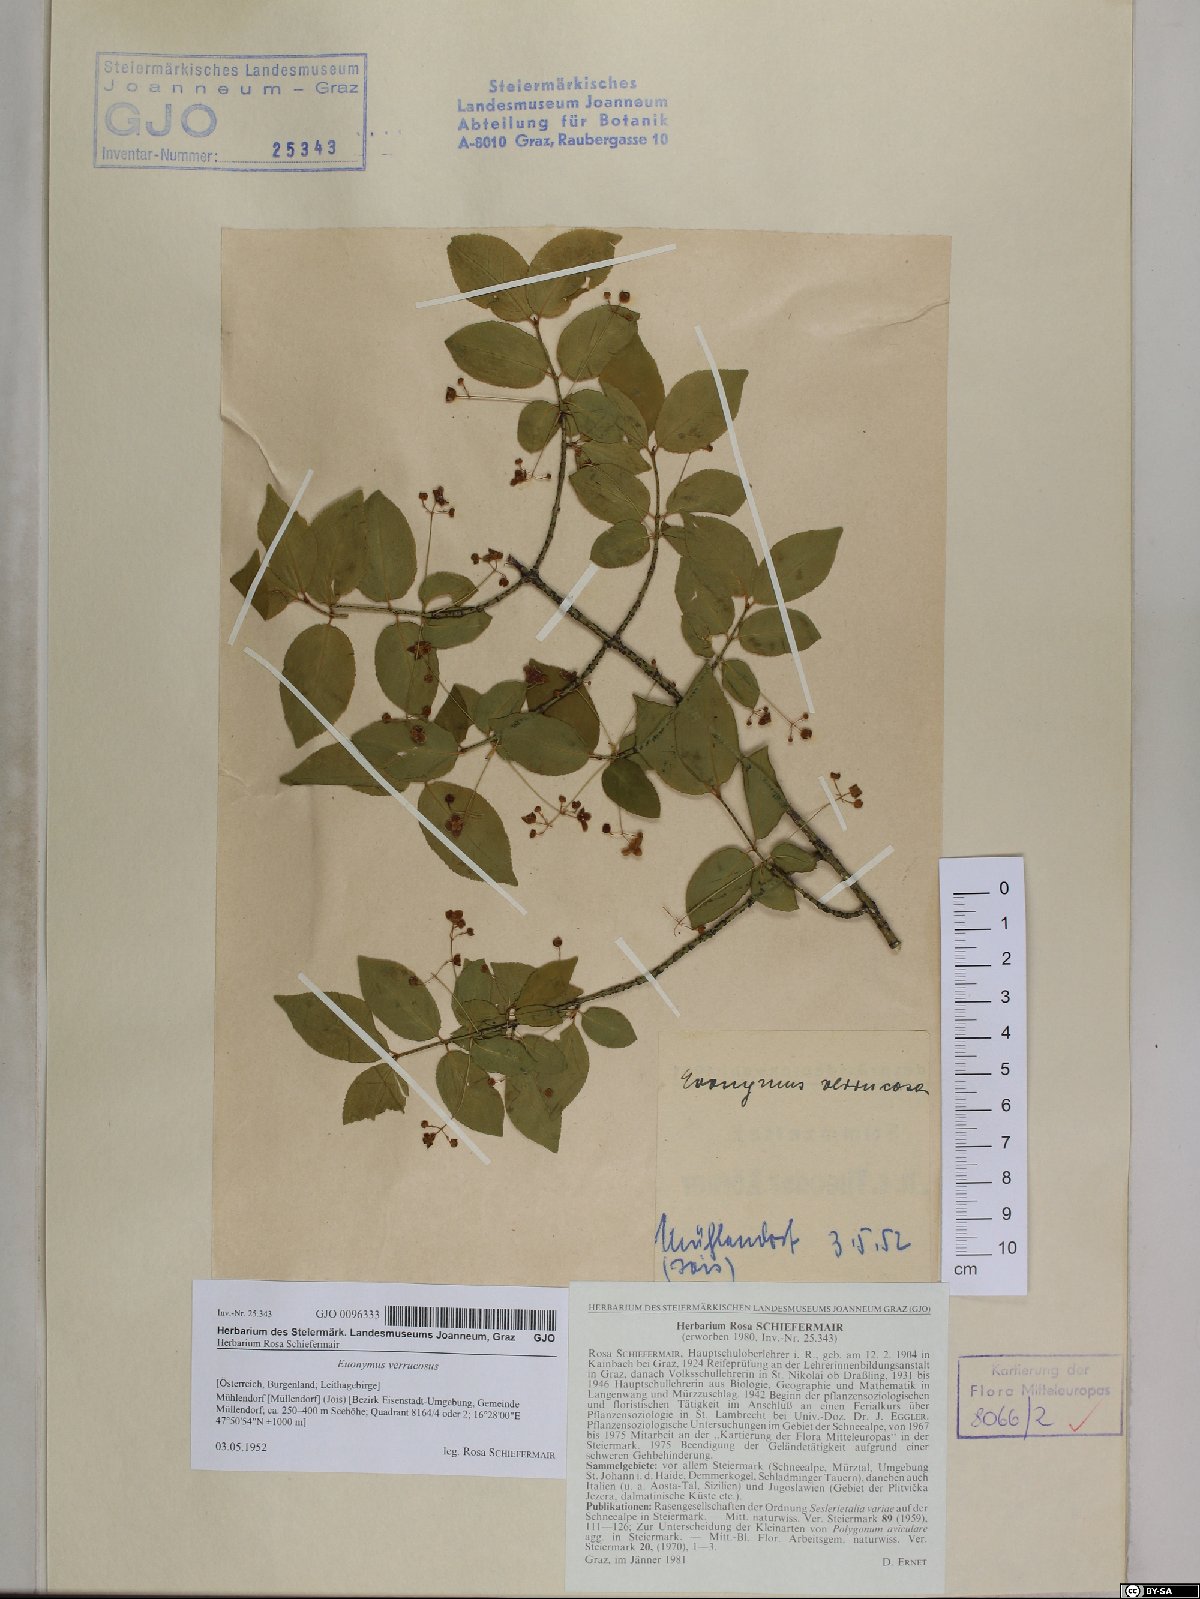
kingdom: Plantae
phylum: Tracheophyta
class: Magnoliopsida
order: Celastrales
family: Celastraceae
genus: Euonymus
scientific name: Euonymus verrucosus
